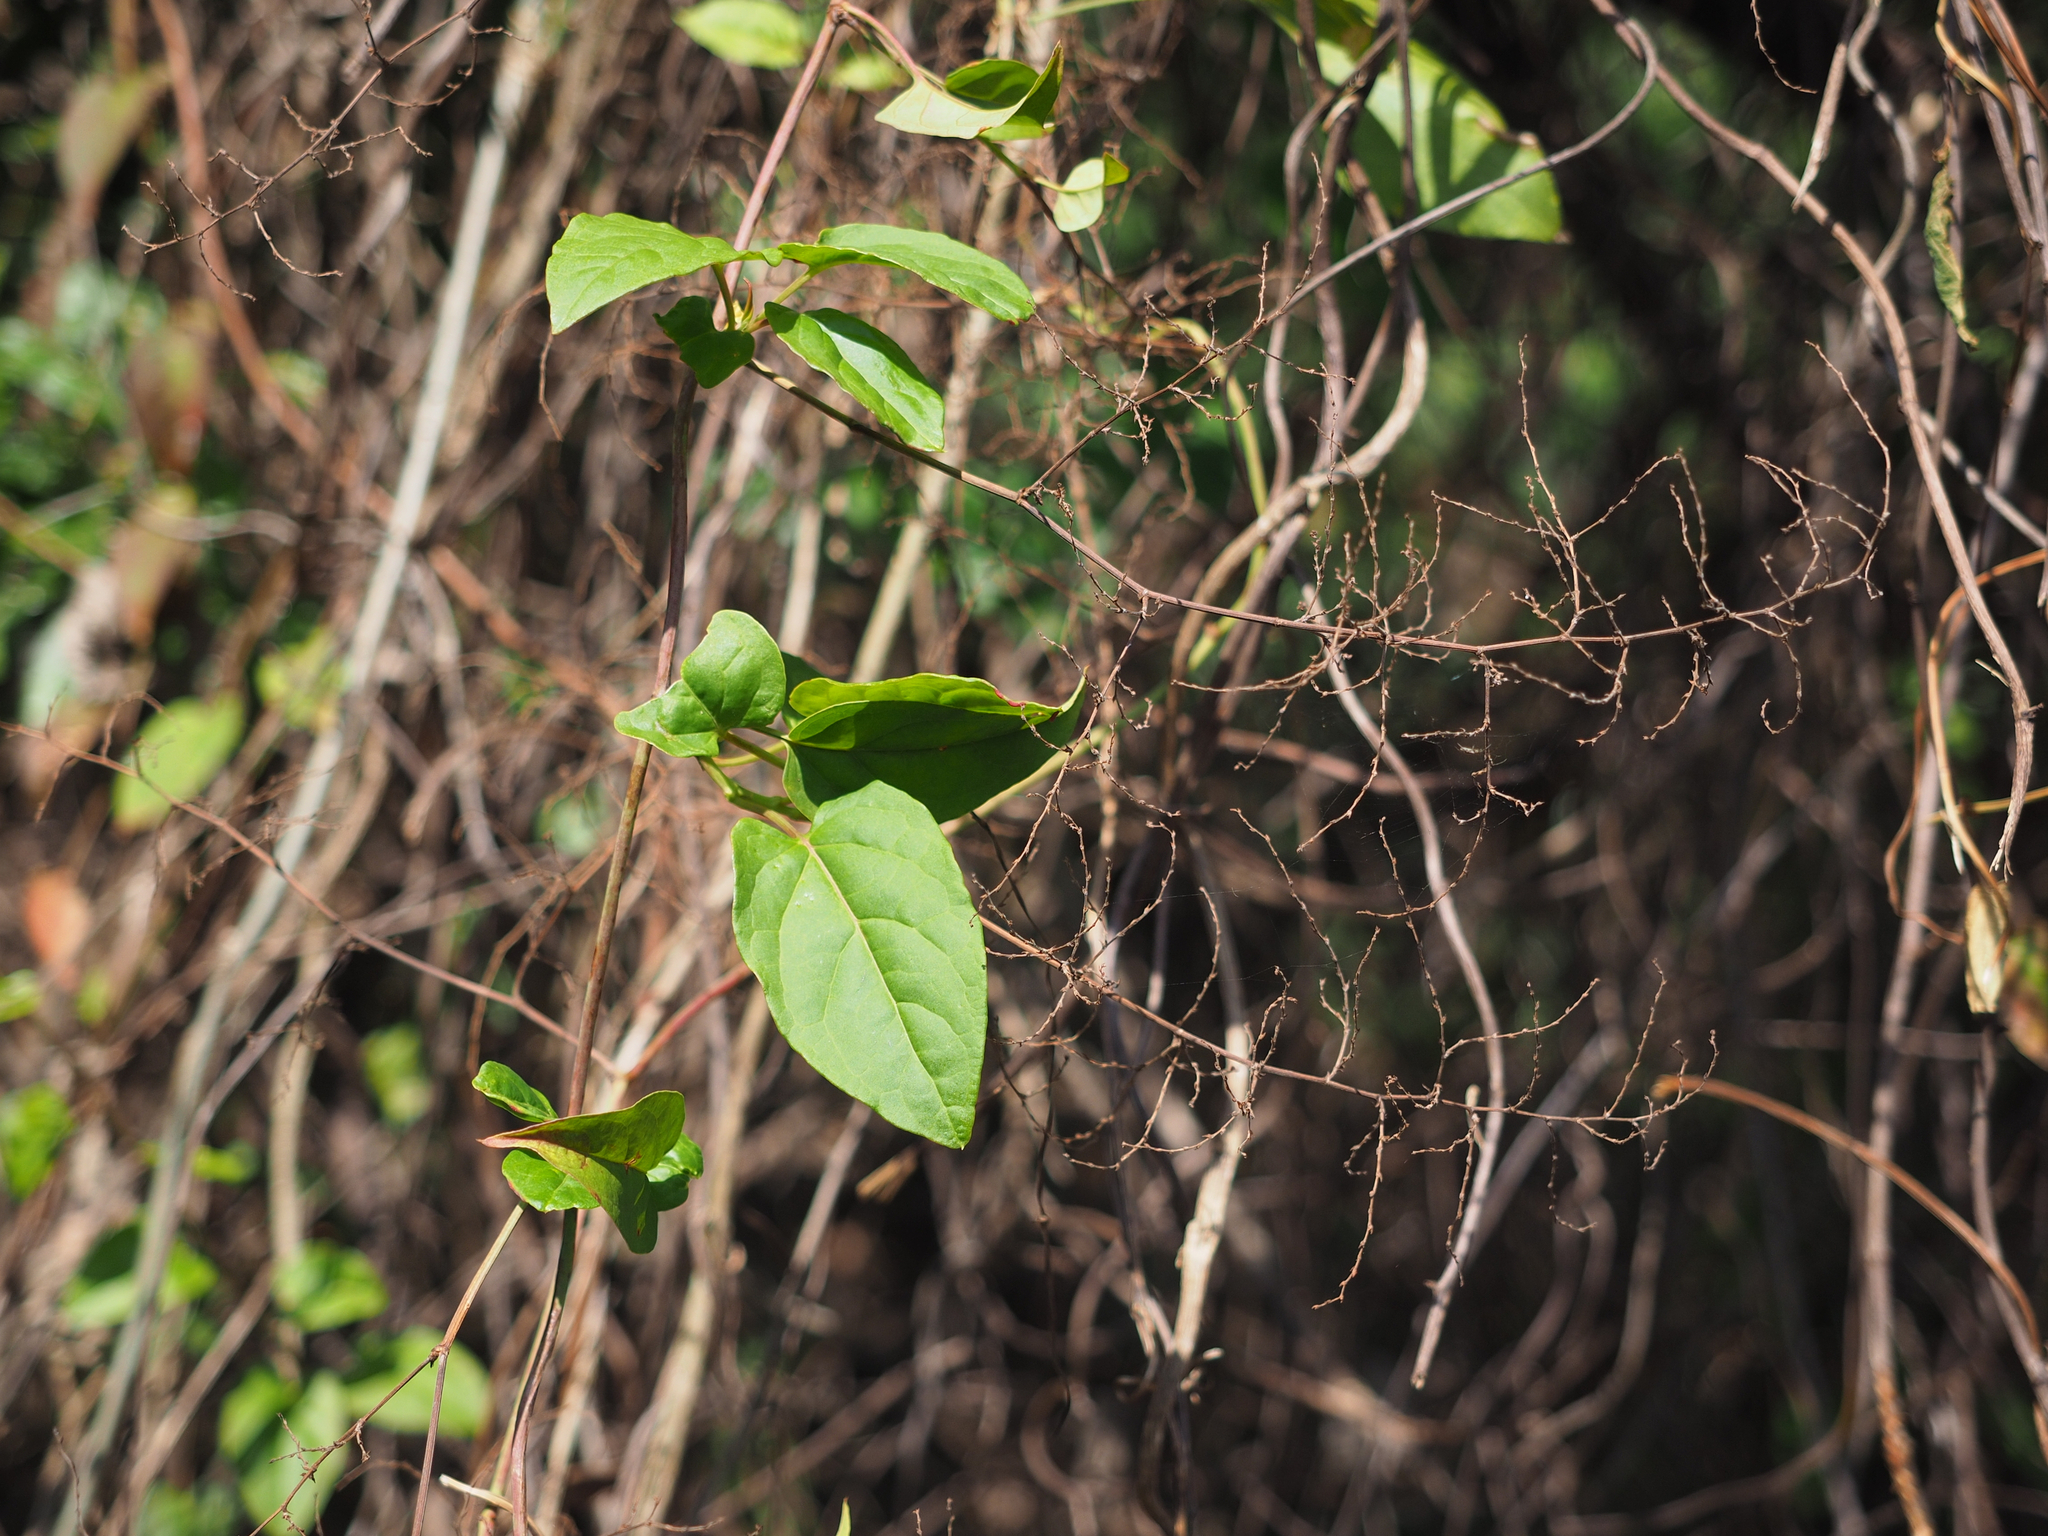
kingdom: Plantae
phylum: Tracheophyta
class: Magnoliopsida
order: Caryophyllales
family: Polygonaceae
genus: Reynoutria
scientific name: Reynoutria multiflora
